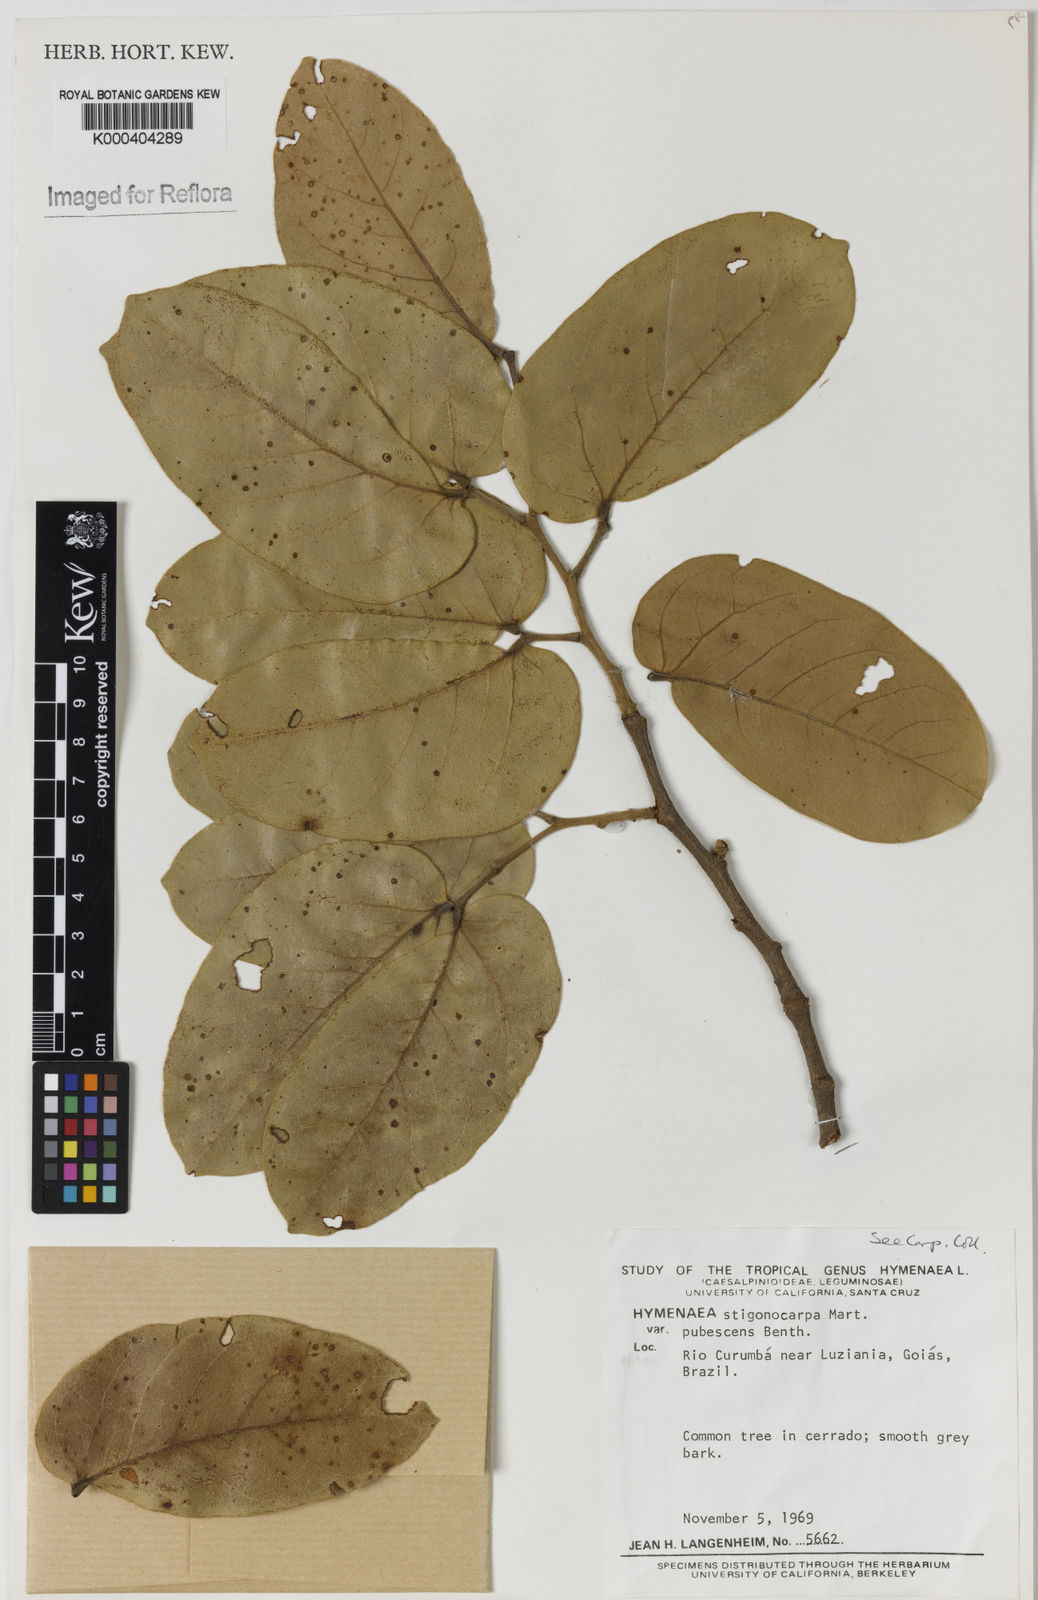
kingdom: Plantae
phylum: Tracheophyta
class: Magnoliopsida
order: Fabales
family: Fabaceae
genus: Hymenaea
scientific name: Hymenaea stigonocarpa
